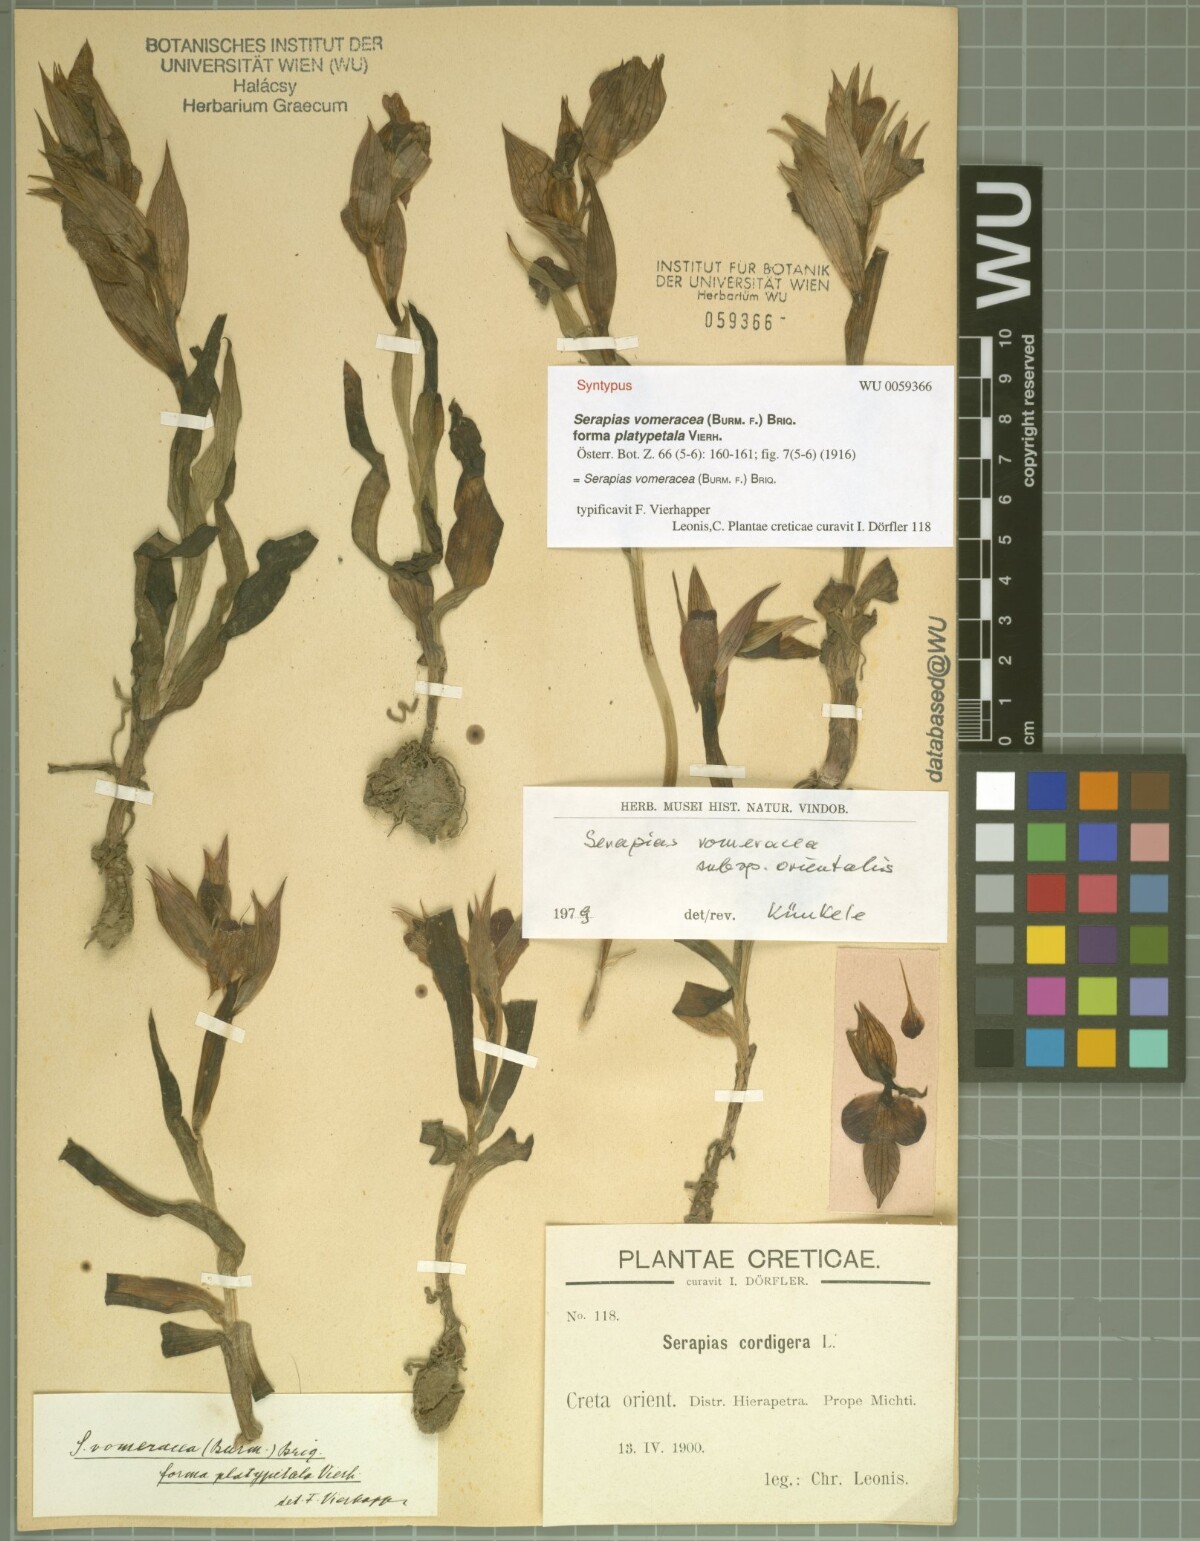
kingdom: Plantae
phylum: Tracheophyta
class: Liliopsida
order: Asparagales
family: Orchidaceae
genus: Serapias
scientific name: Serapias orientalis
